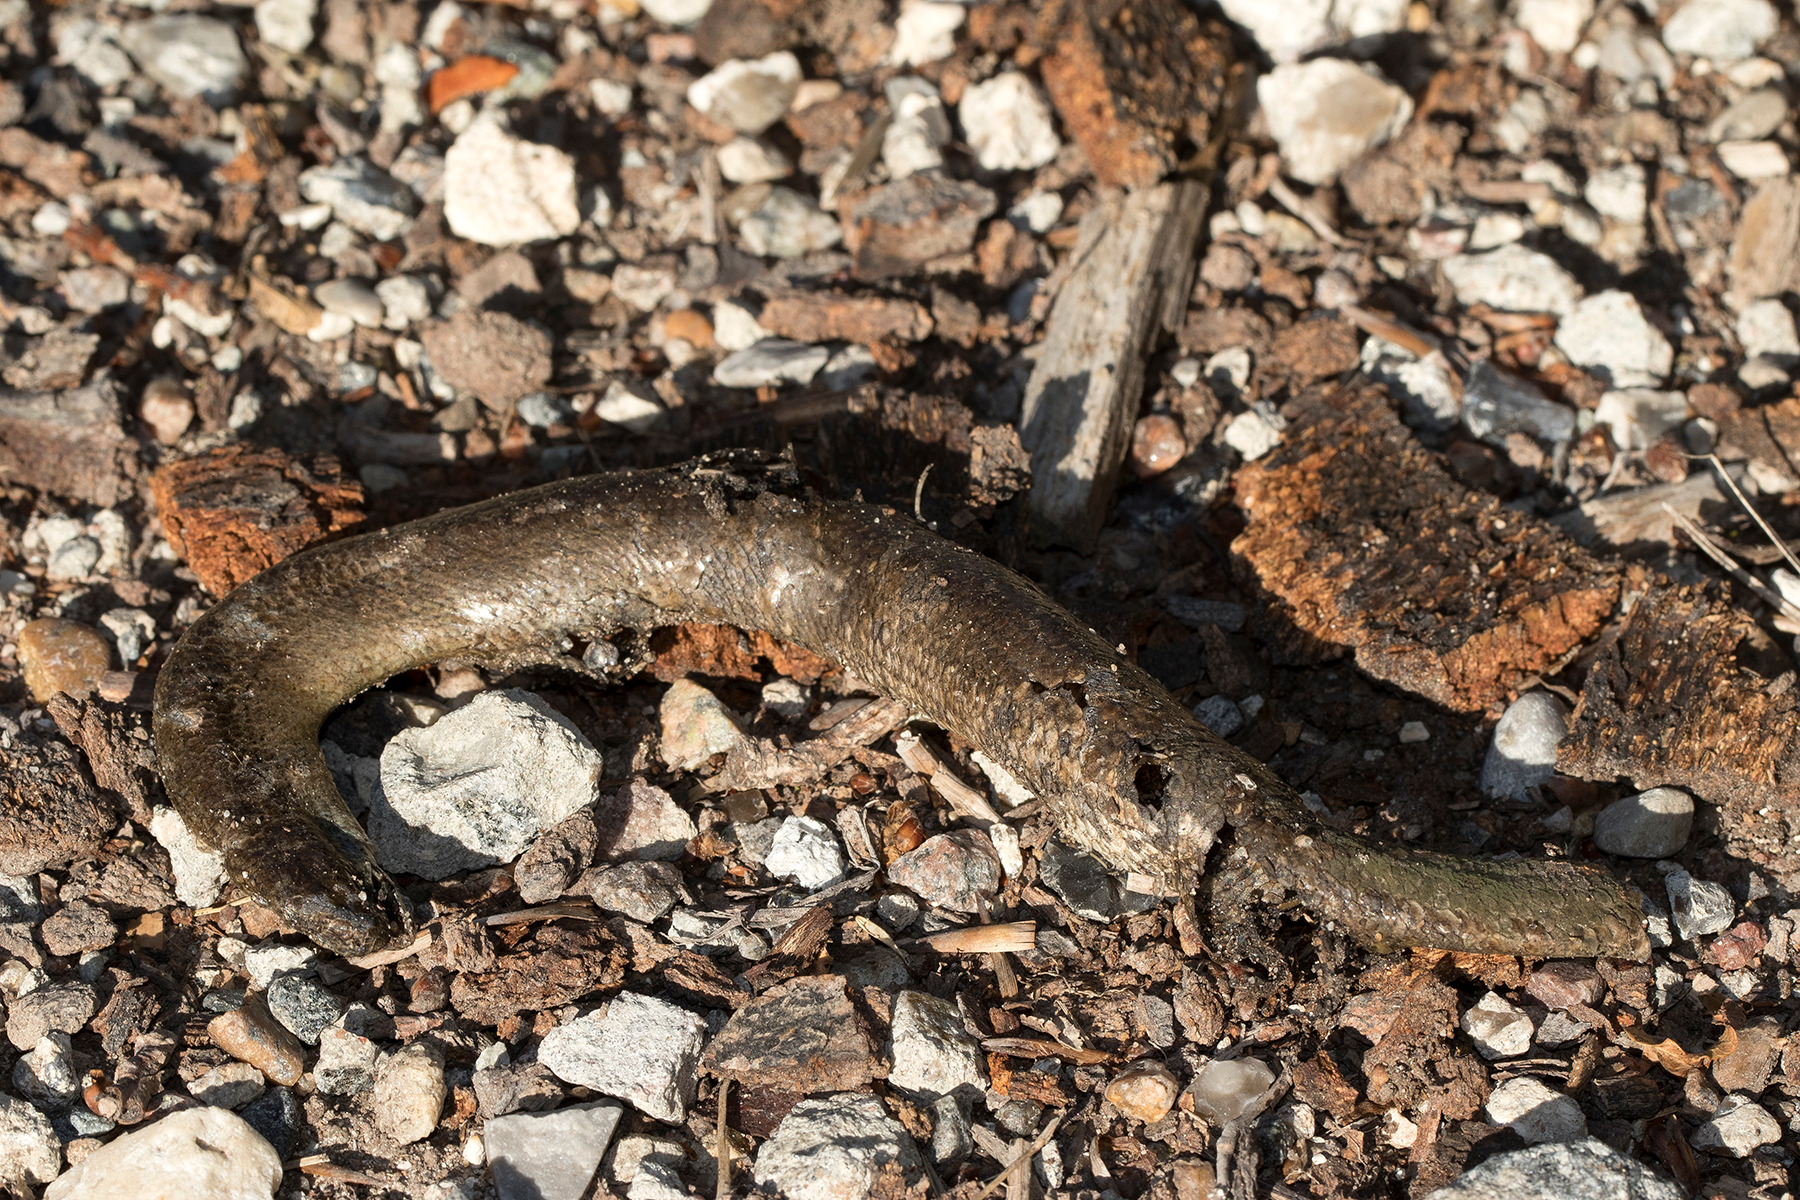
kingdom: Animalia
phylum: Chordata
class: Squamata
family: Anguidae
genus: Anguis
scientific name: Anguis fragilis
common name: Stålorm
